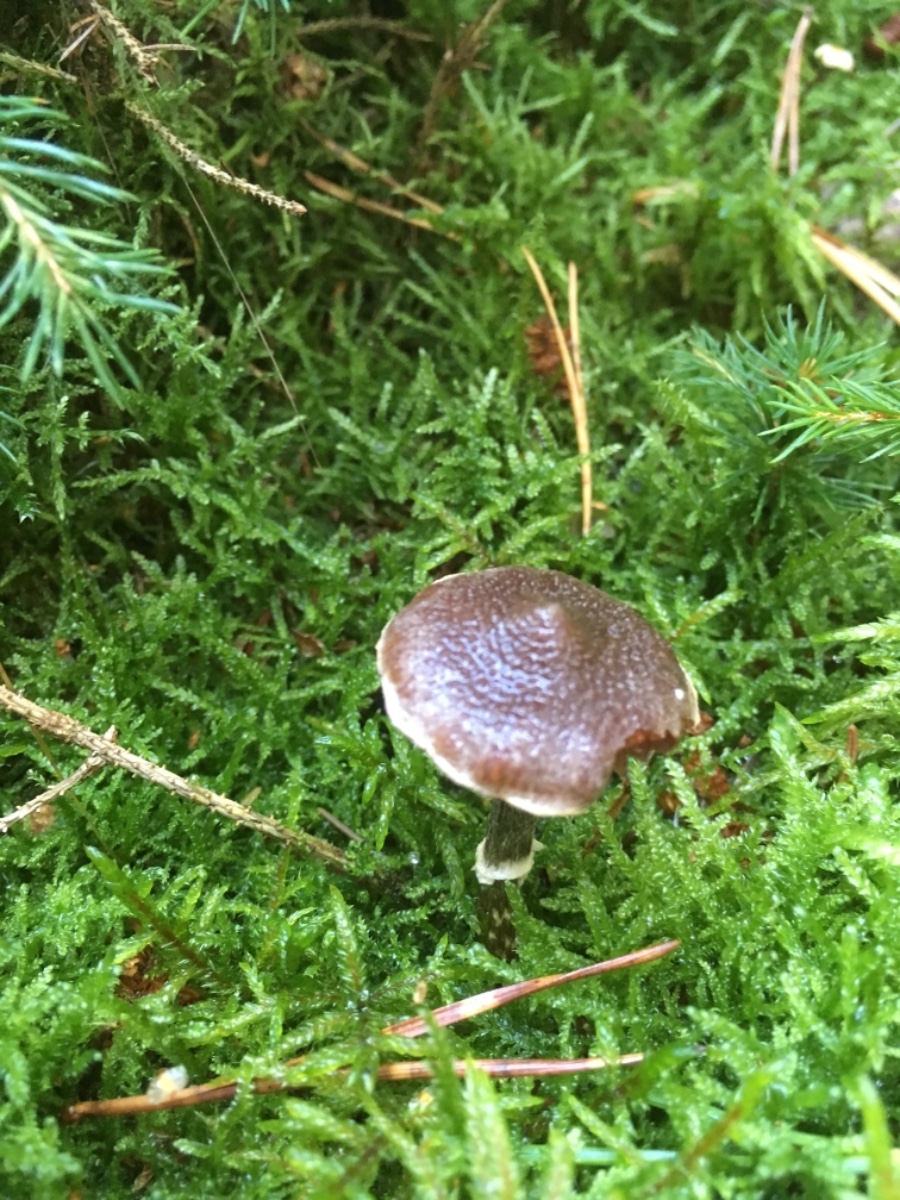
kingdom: Fungi
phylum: Basidiomycota
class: Agaricomycetes
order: Agaricales
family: Cortinariaceae
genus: Cortinarius
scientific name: Cortinarius
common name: pelargonie-slørhat
